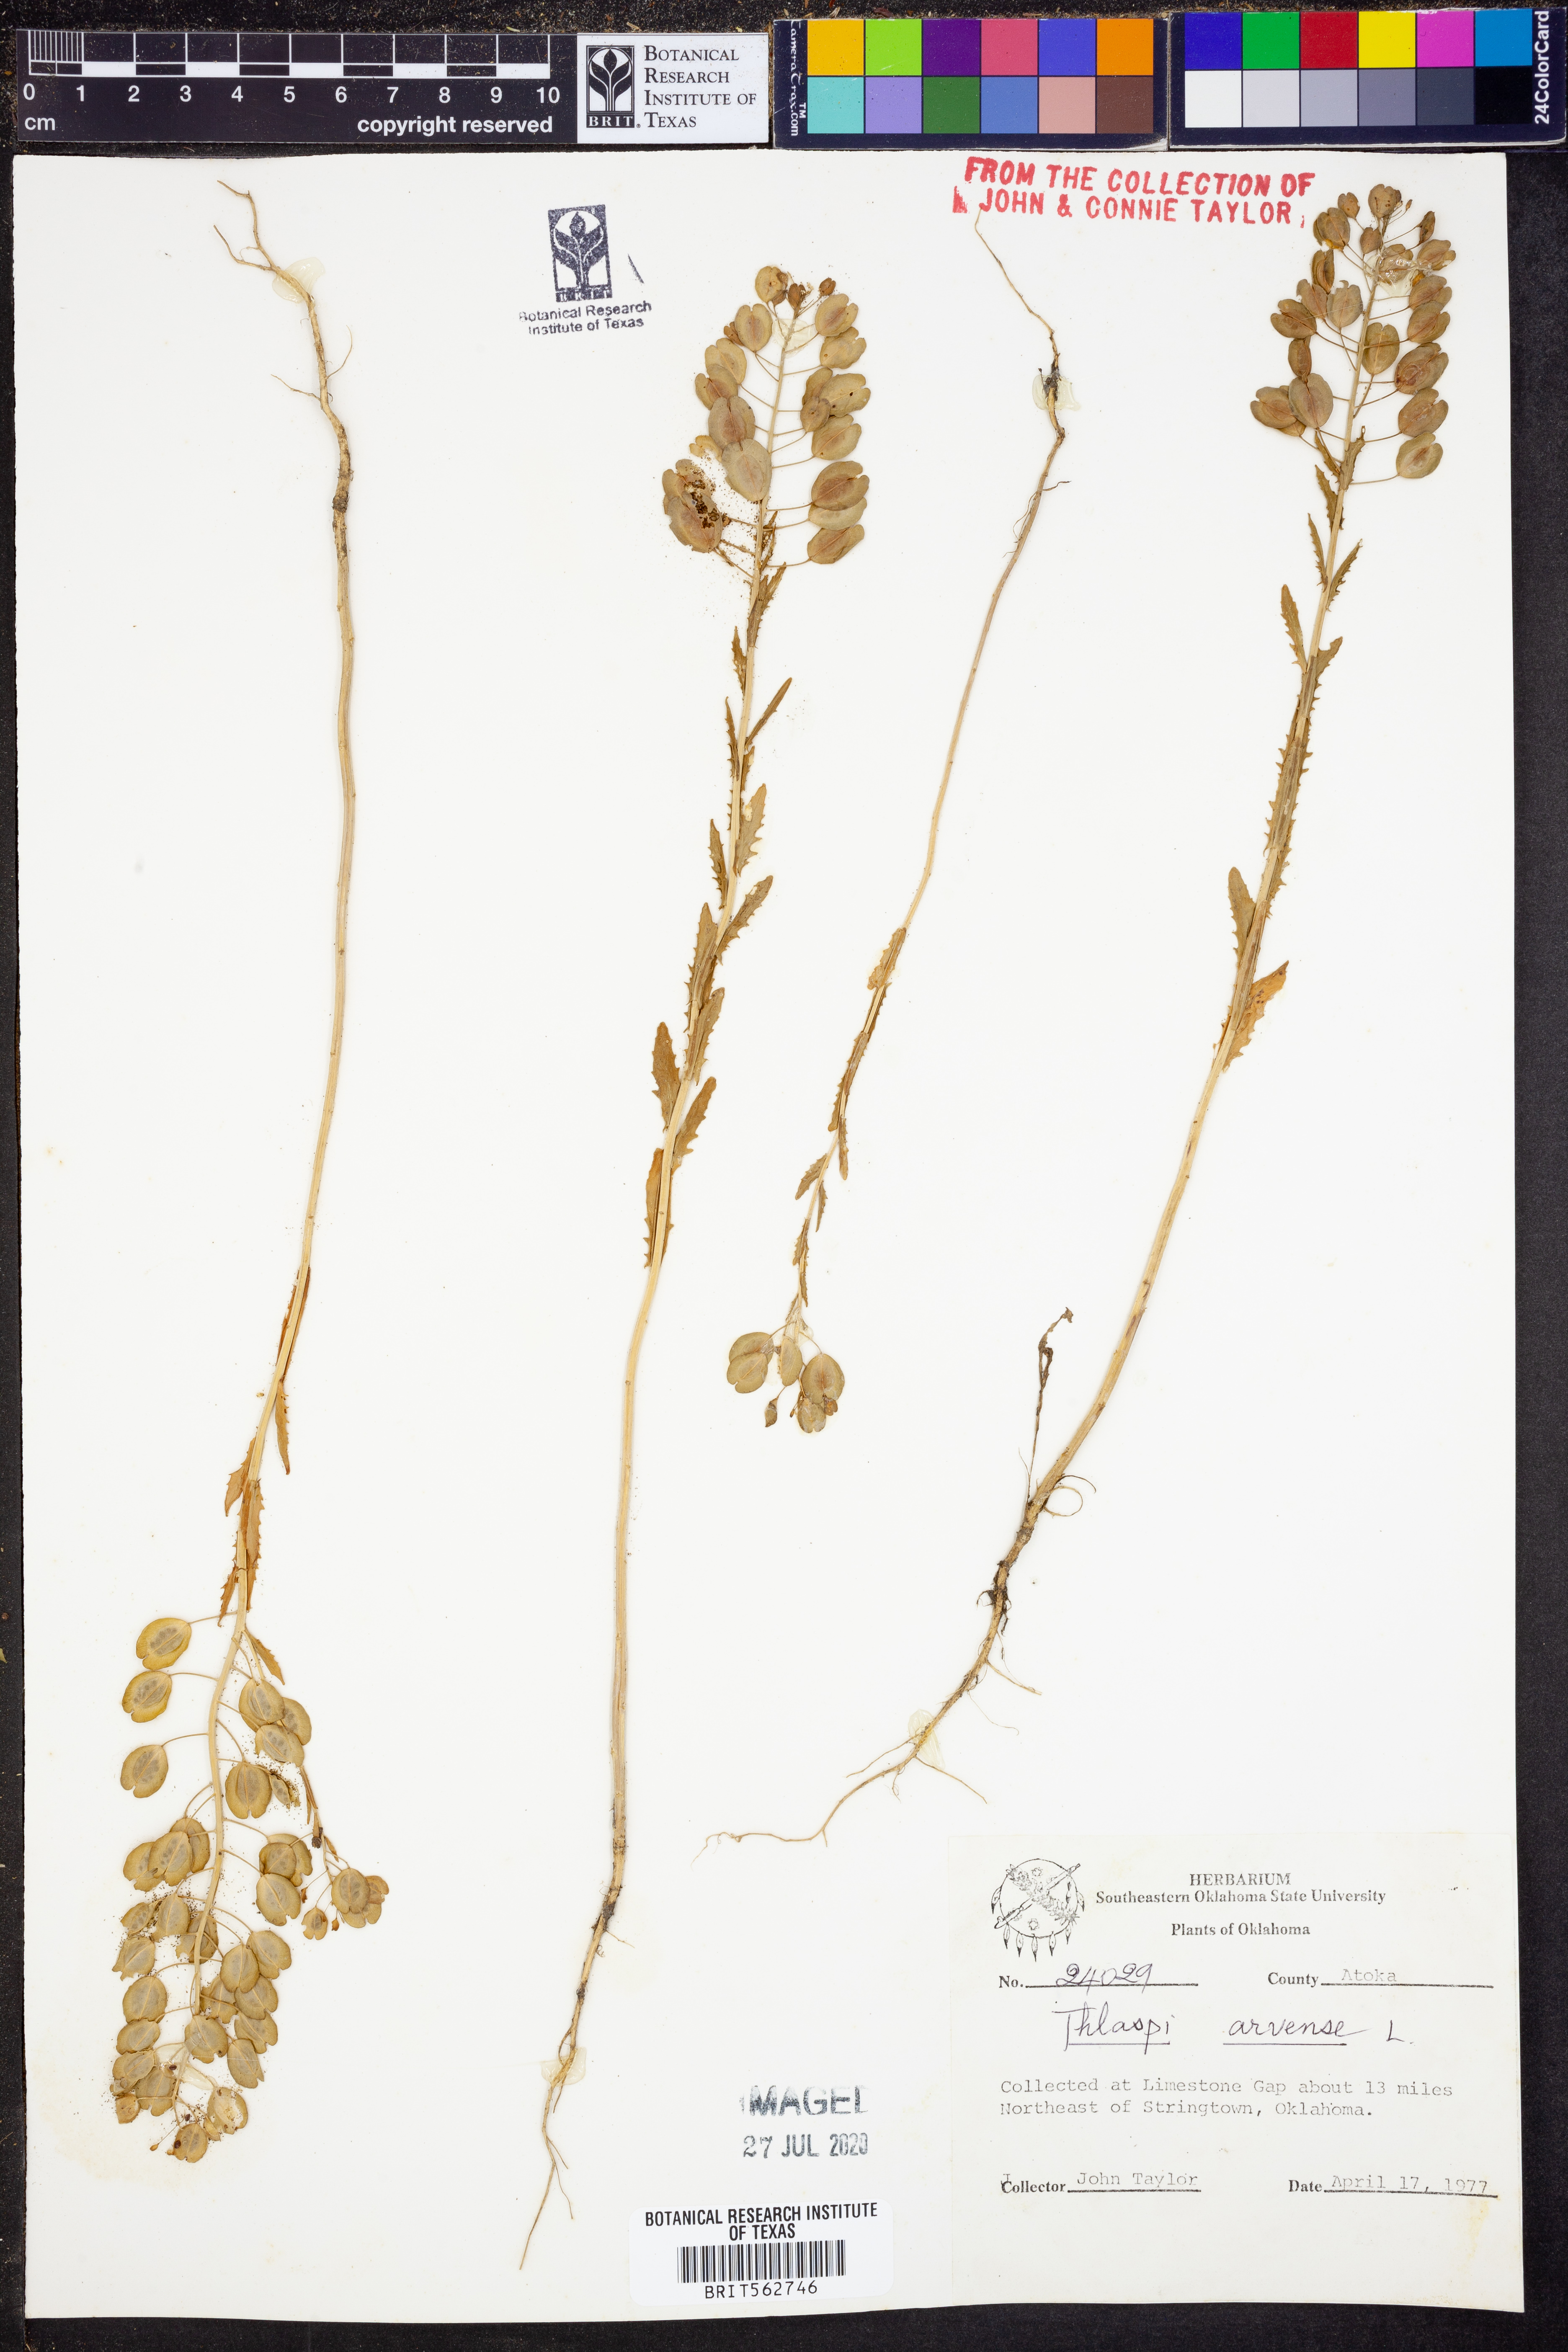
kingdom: Plantae
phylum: Tracheophyta
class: Magnoliopsida
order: Brassicales
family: Brassicaceae
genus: Thlaspi
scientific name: Thlaspi arvense
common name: Field pennycress
